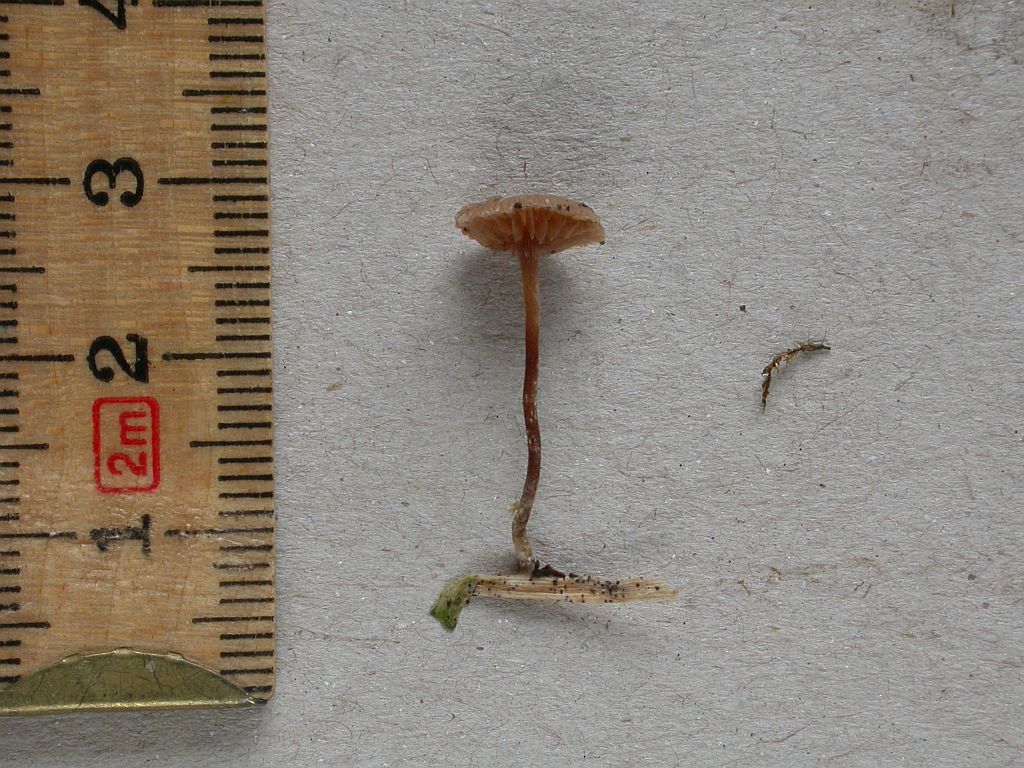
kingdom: Fungi
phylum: Basidiomycota
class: Agaricomycetes
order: Agaricales
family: Strophariaceae
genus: Deconica
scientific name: Deconica crobula
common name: træflis-stråhat
